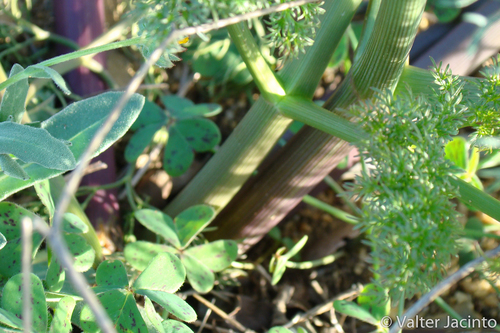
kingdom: Plantae
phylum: Tracheophyta
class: Magnoliopsida
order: Apiales
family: Apiaceae
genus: Ferula
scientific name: Ferula communis
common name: Giant fennel
